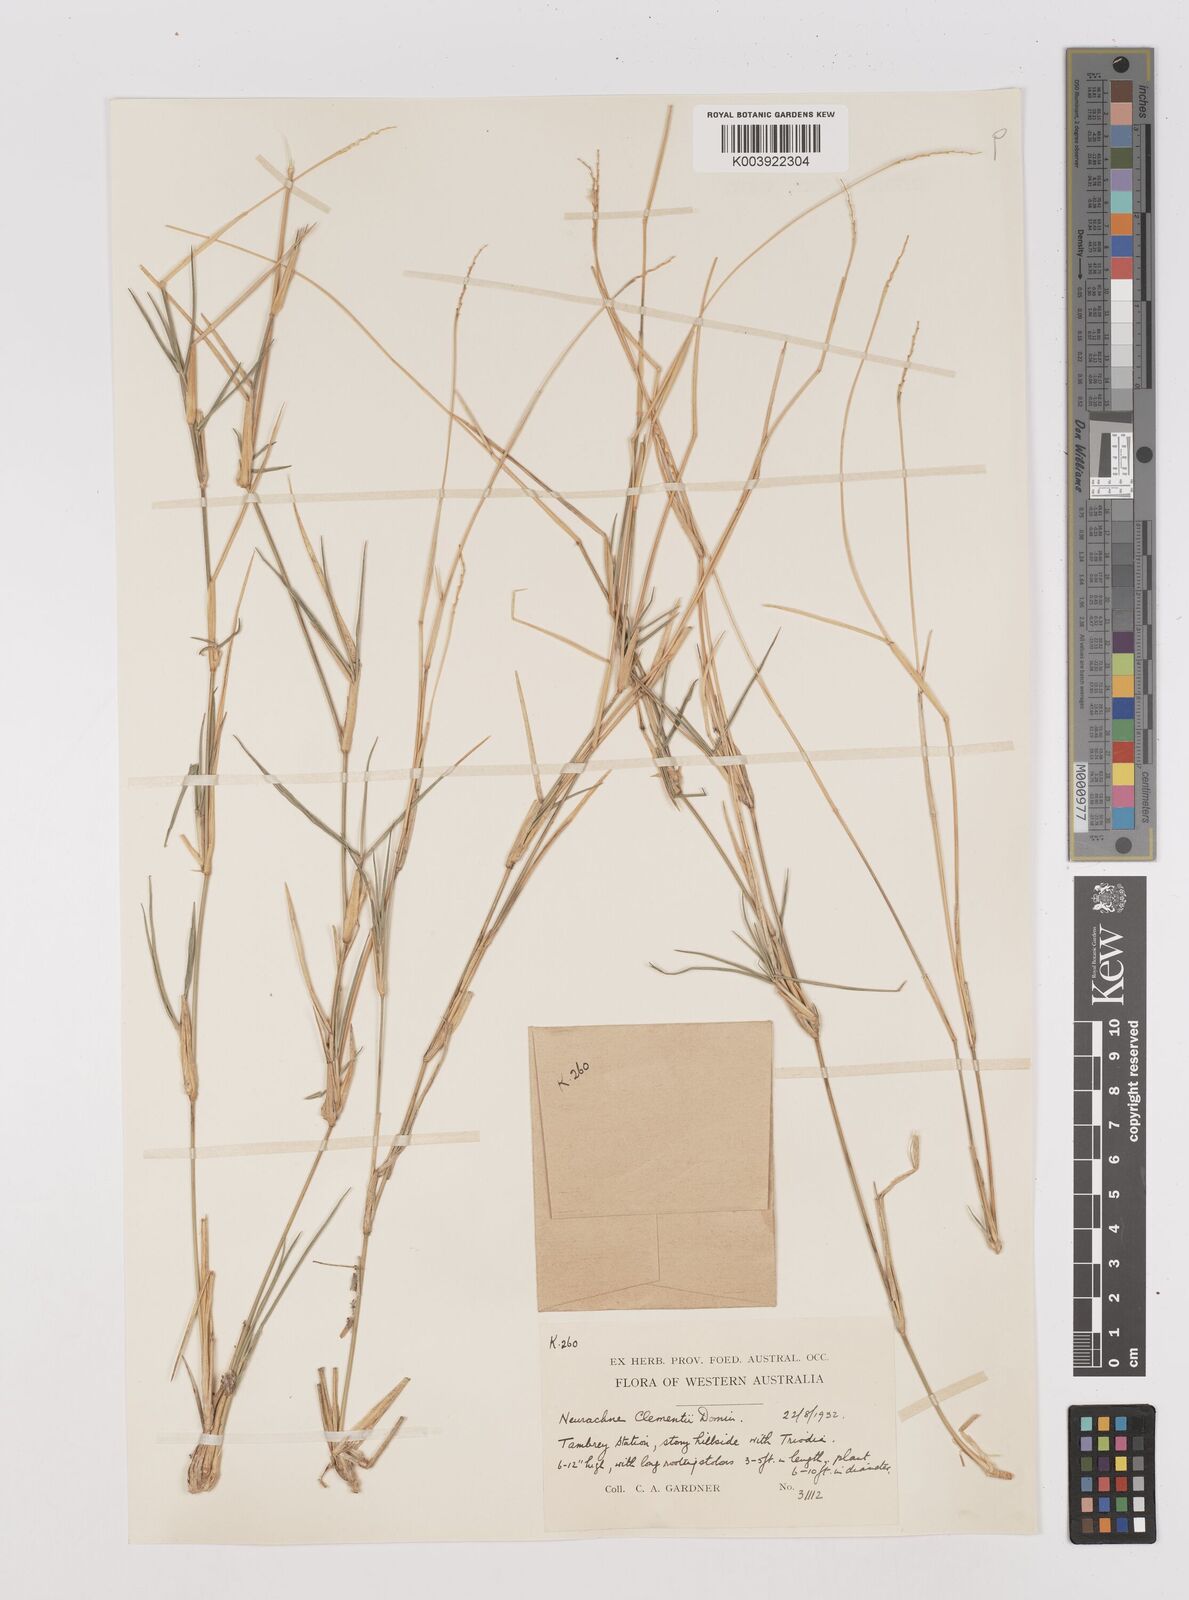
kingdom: Plantae
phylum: Tracheophyta
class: Liliopsida
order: Poales
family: Poaceae
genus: Neurachne
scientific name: Neurachne muelleri
